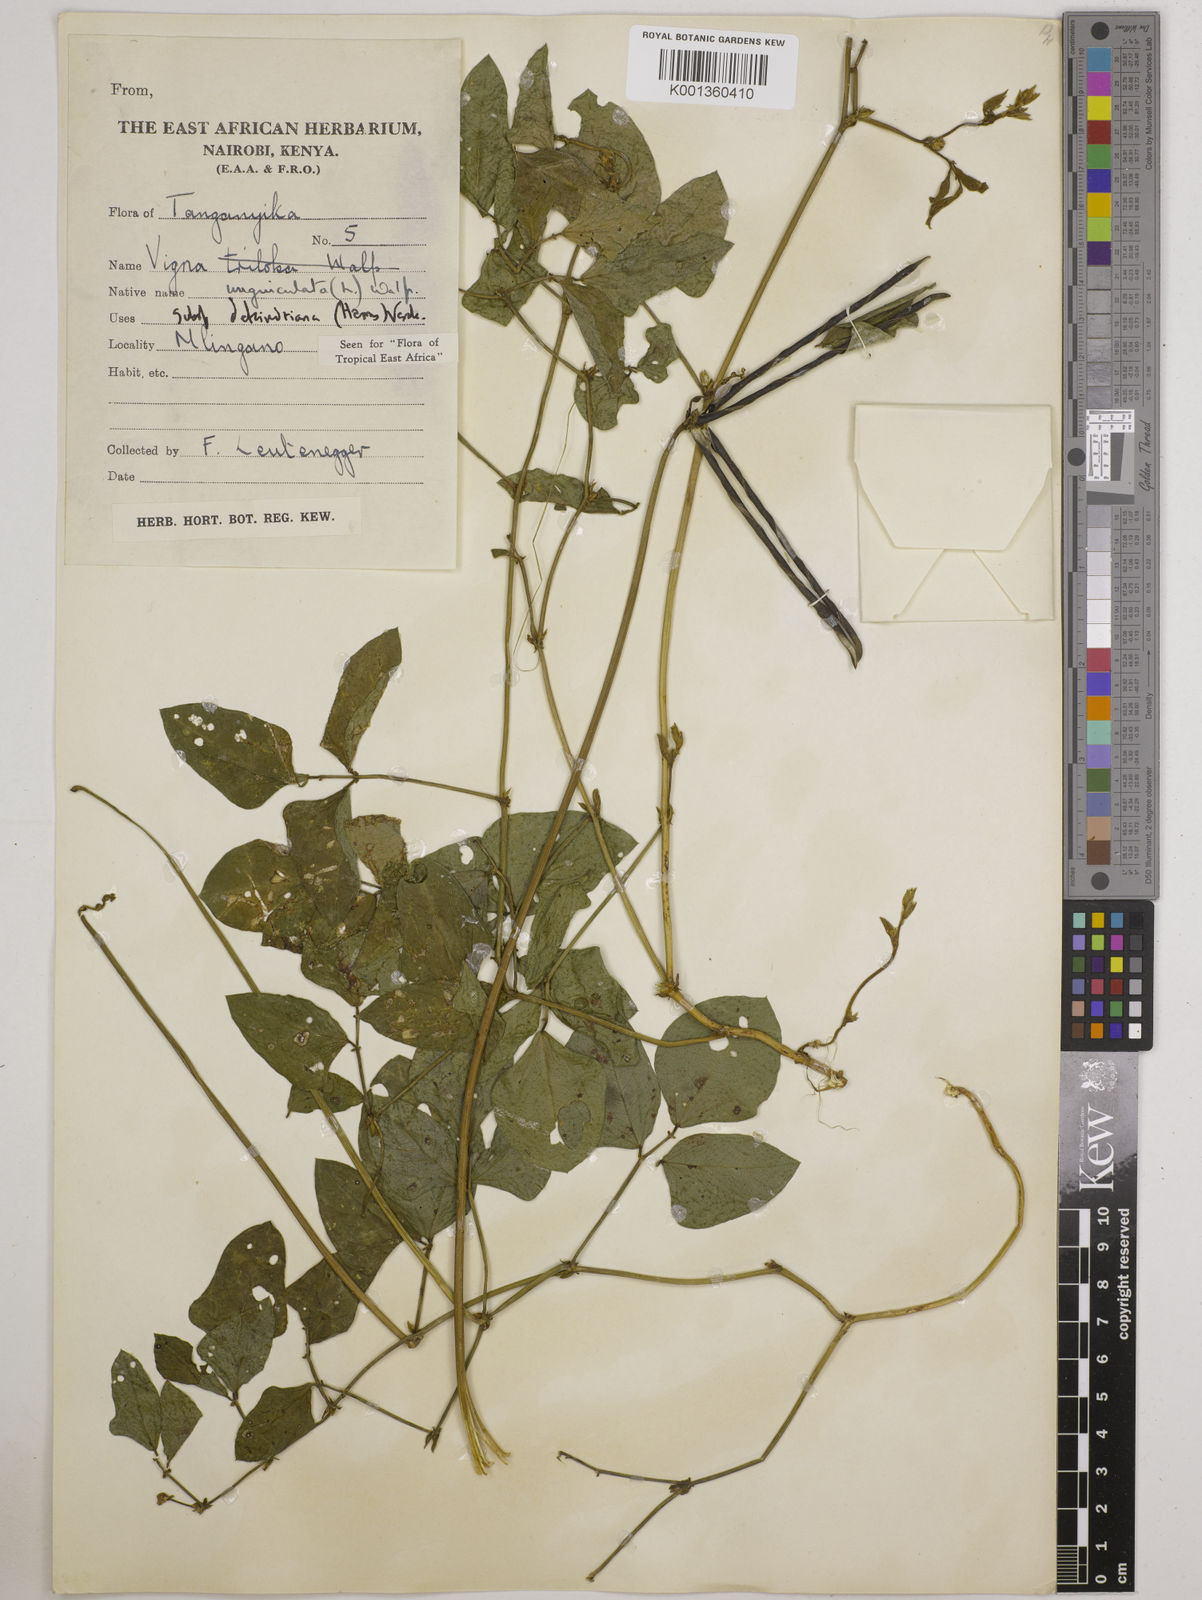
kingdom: Plantae
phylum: Tracheophyta
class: Magnoliopsida
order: Fabales
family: Fabaceae
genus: Vigna
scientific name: Vigna
